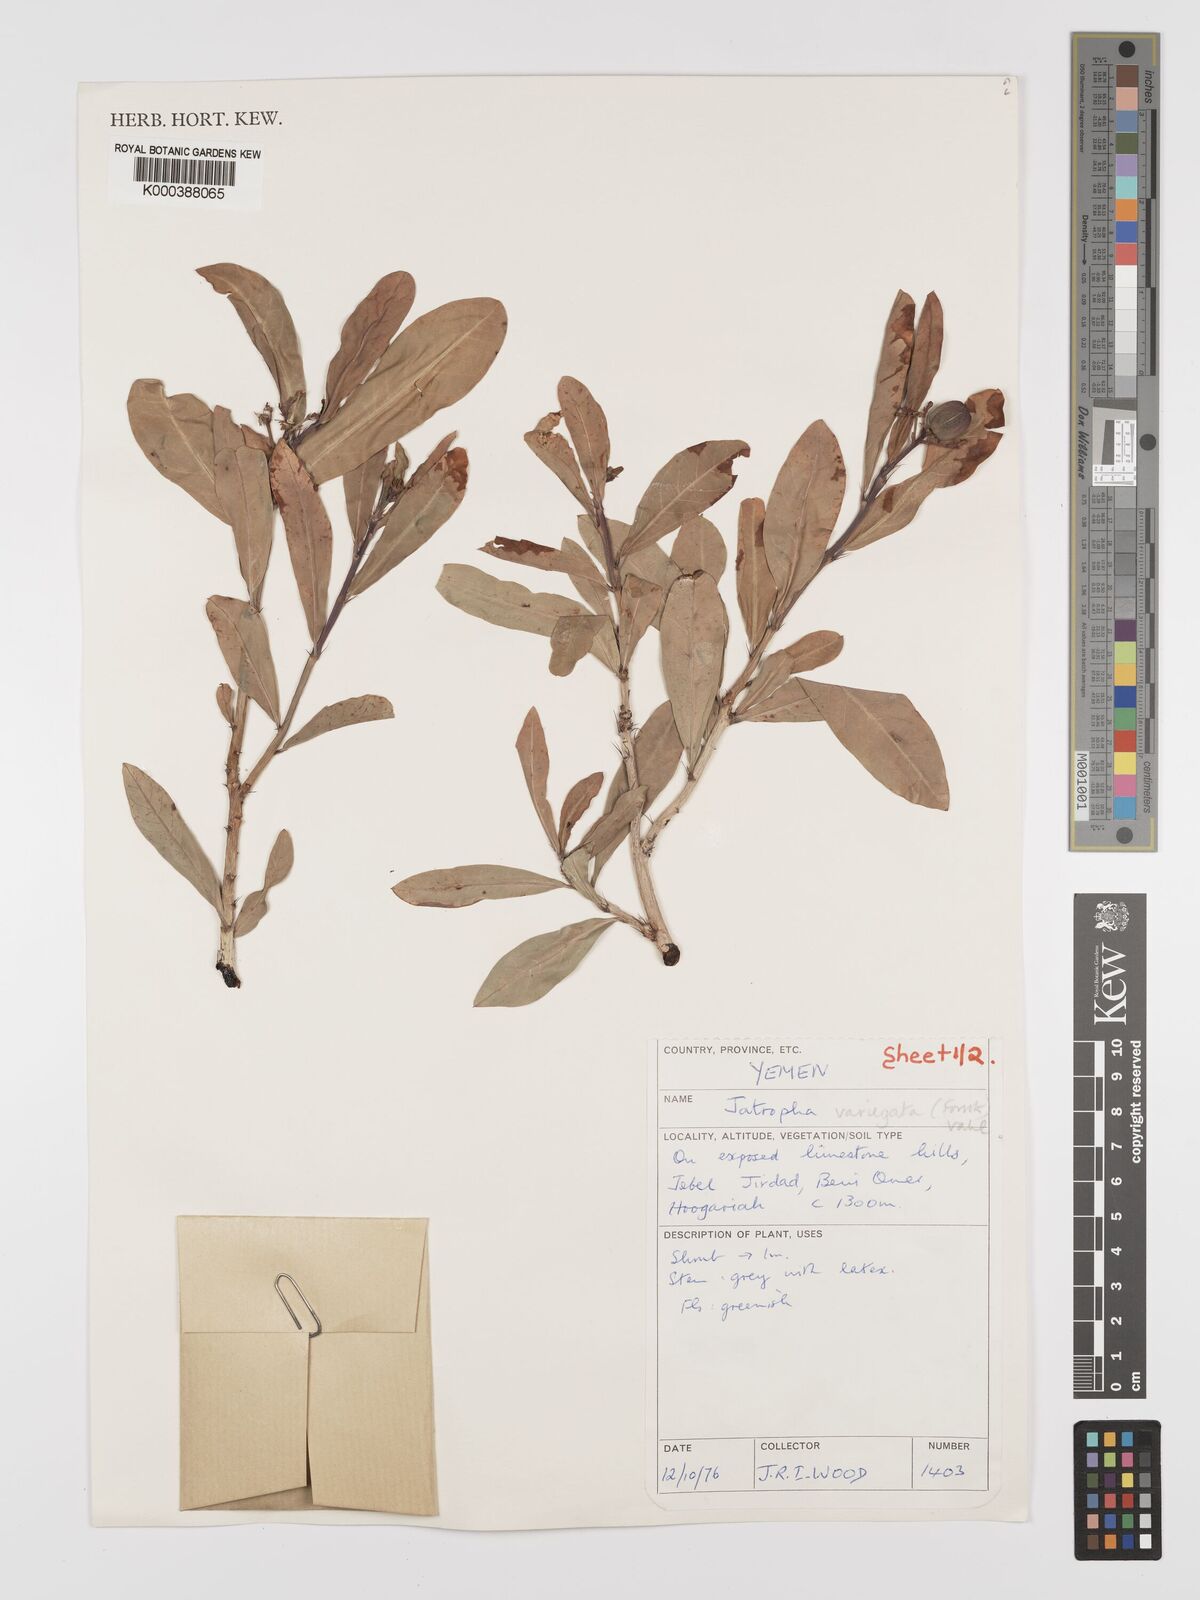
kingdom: Plantae
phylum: Tracheophyta
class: Magnoliopsida
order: Malpighiales
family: Euphorbiaceae
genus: Jatropha
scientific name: Jatropha variegata
